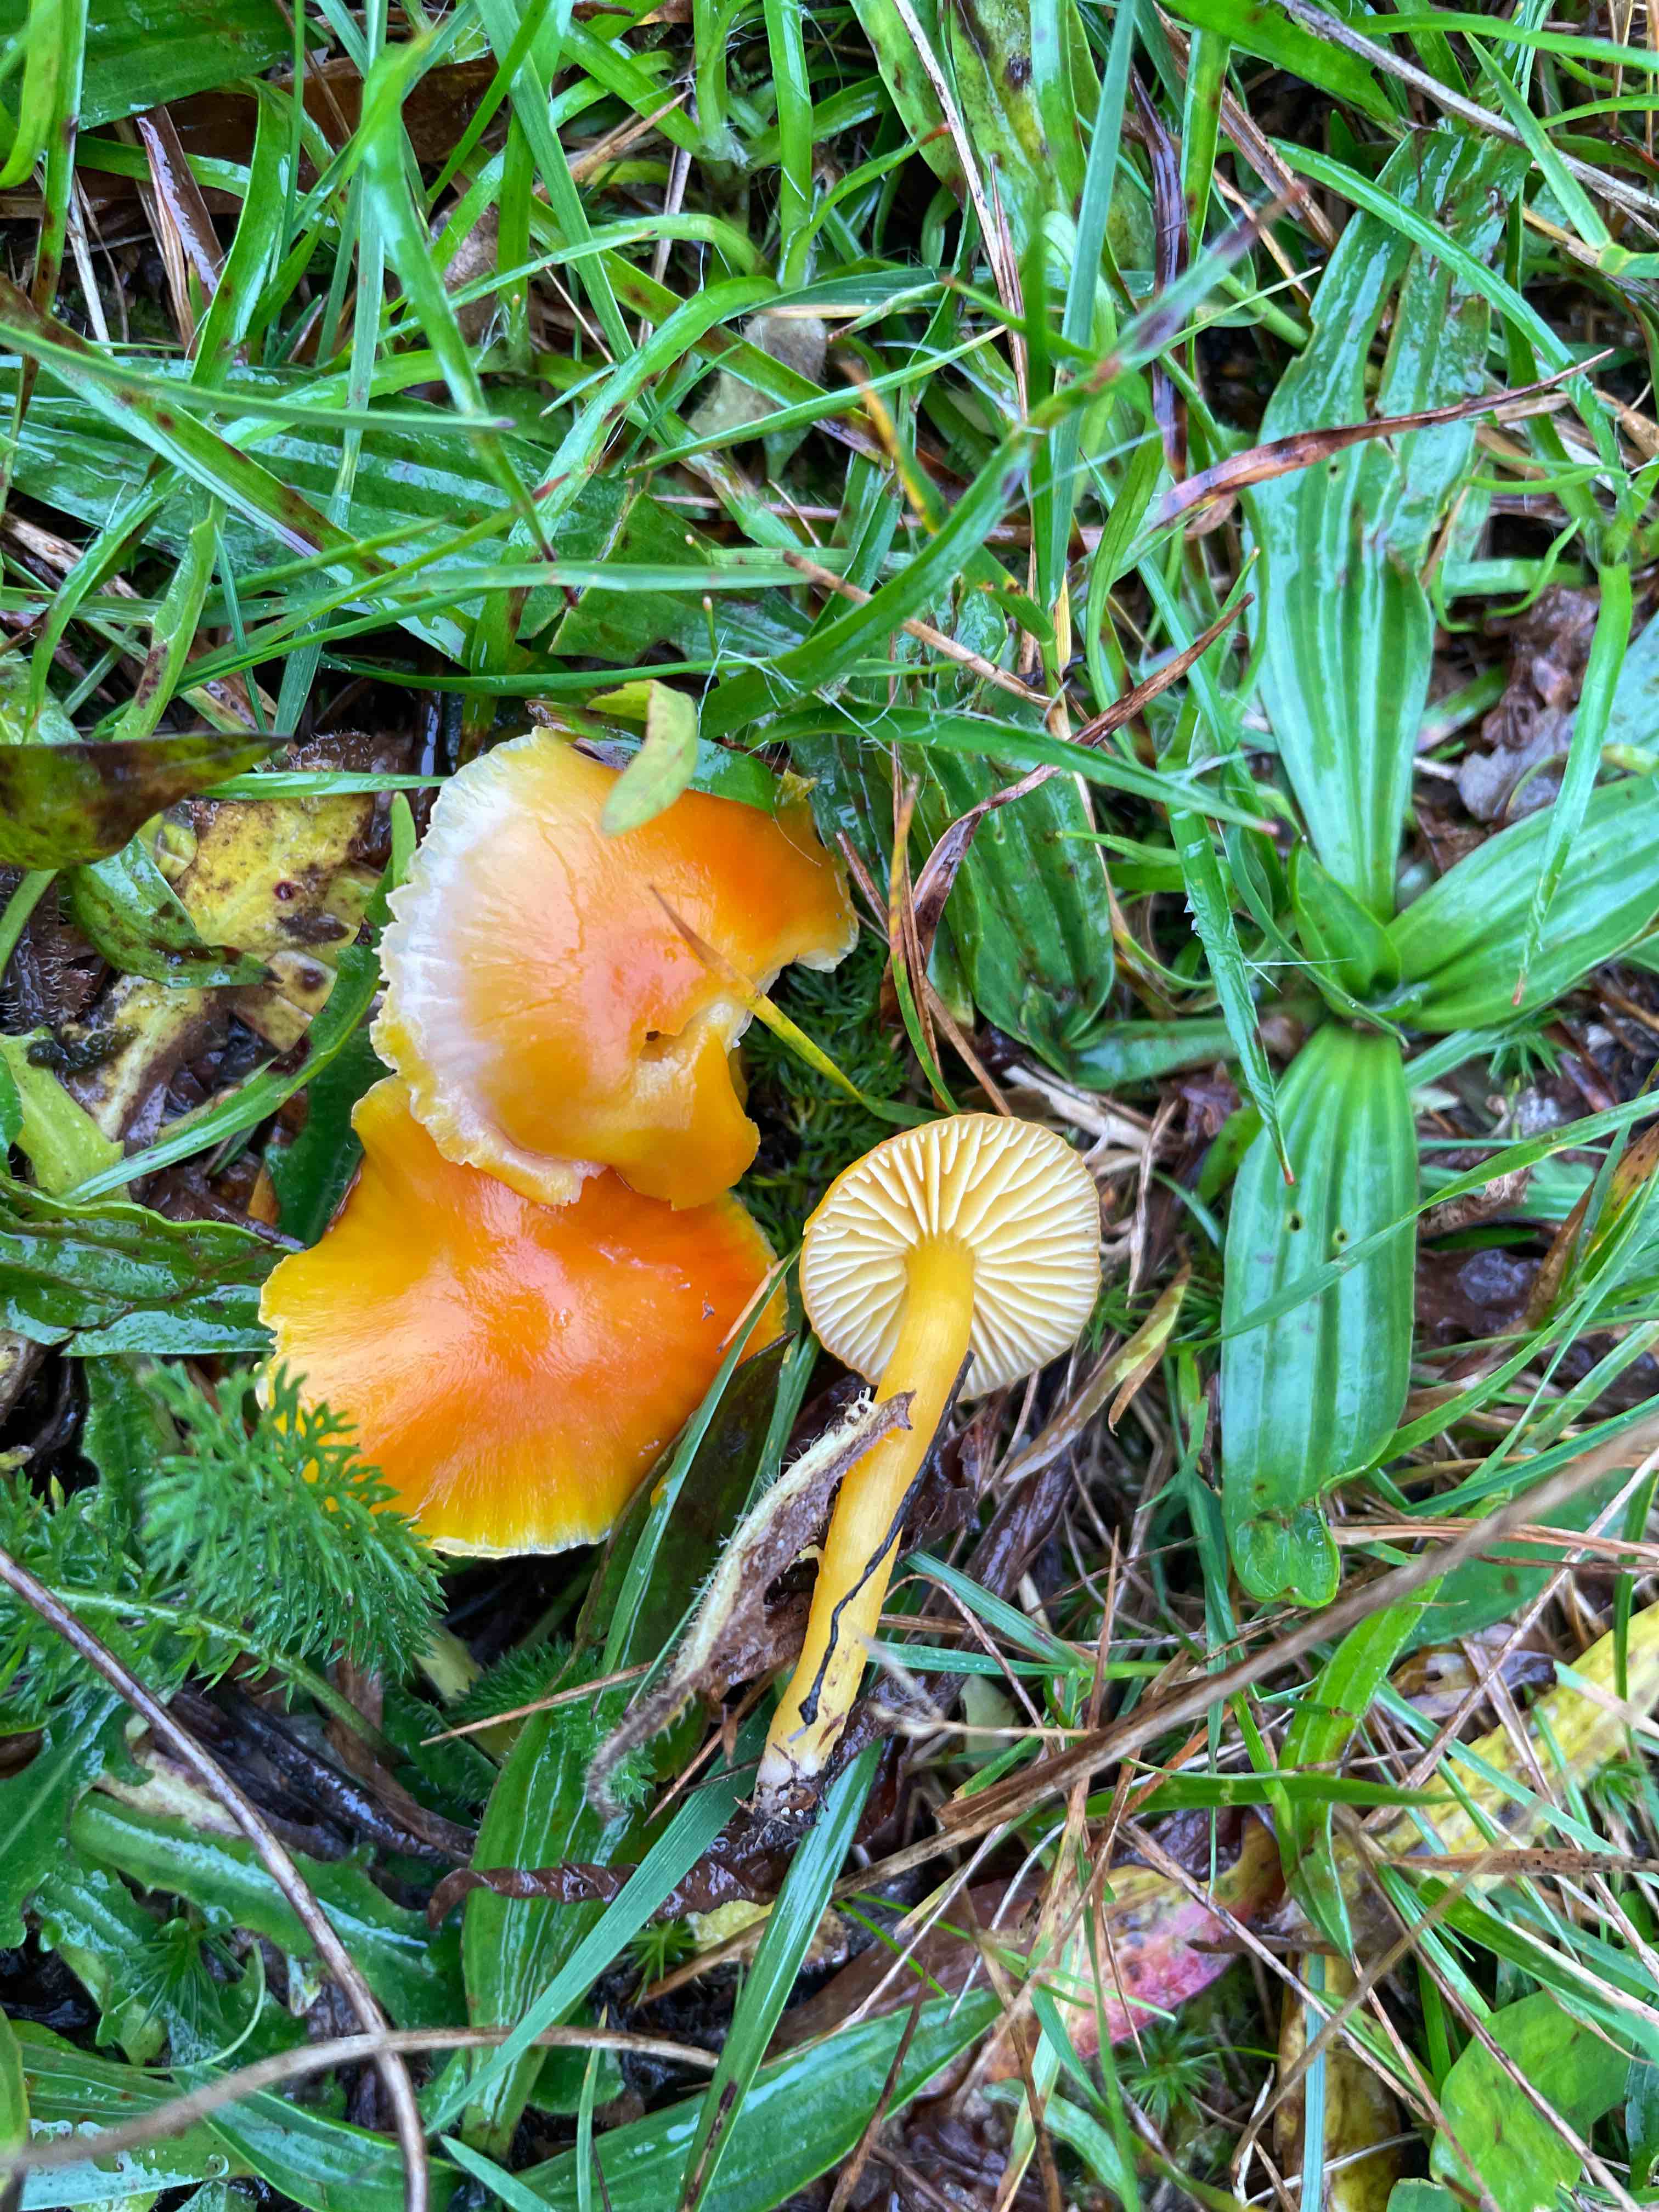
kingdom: Fungi
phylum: Basidiomycota
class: Agaricomycetes
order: Agaricales
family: Hygrophoraceae
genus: Hygrocybe
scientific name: Hygrocybe ceracea
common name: voksgul vokshat
